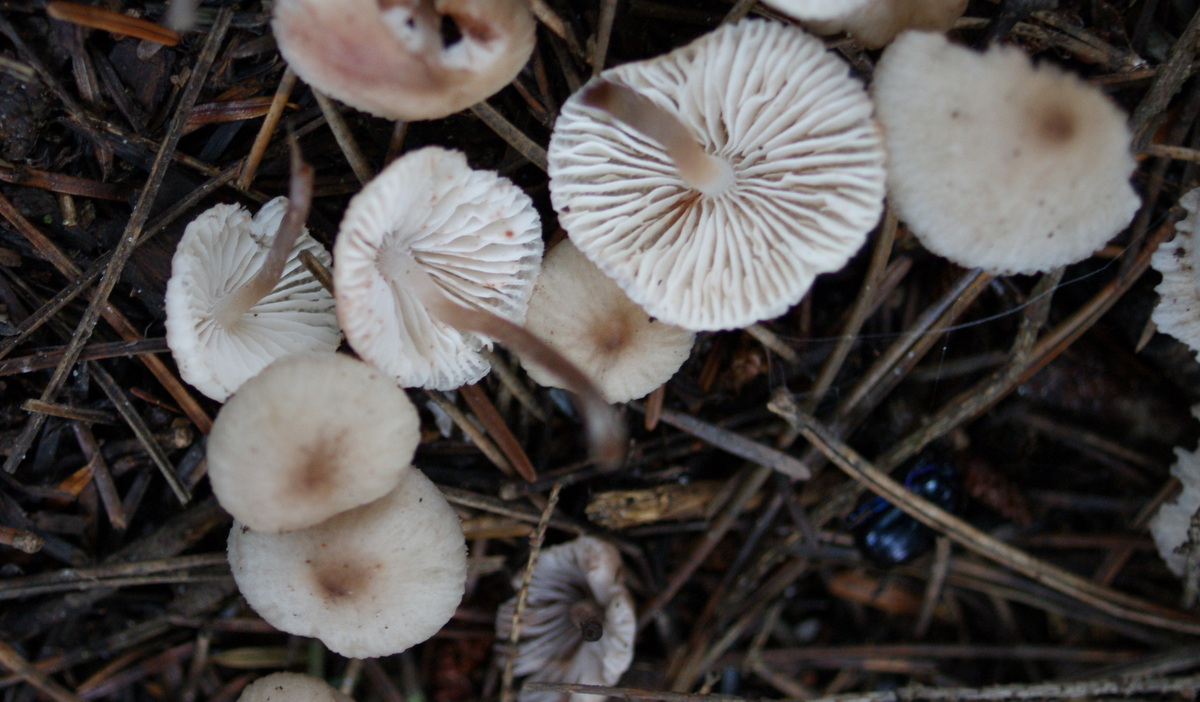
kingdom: Fungi
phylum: Basidiomycota
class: Agaricomycetes
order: Agaricales
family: Mycenaceae
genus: Mycena
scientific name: Mycena zephirus
